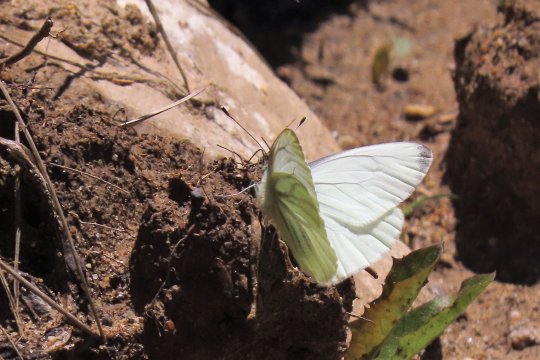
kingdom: Animalia
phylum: Arthropoda
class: Insecta
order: Lepidoptera
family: Pieridae
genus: Pieris
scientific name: Pieris marginalis
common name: Margined White
